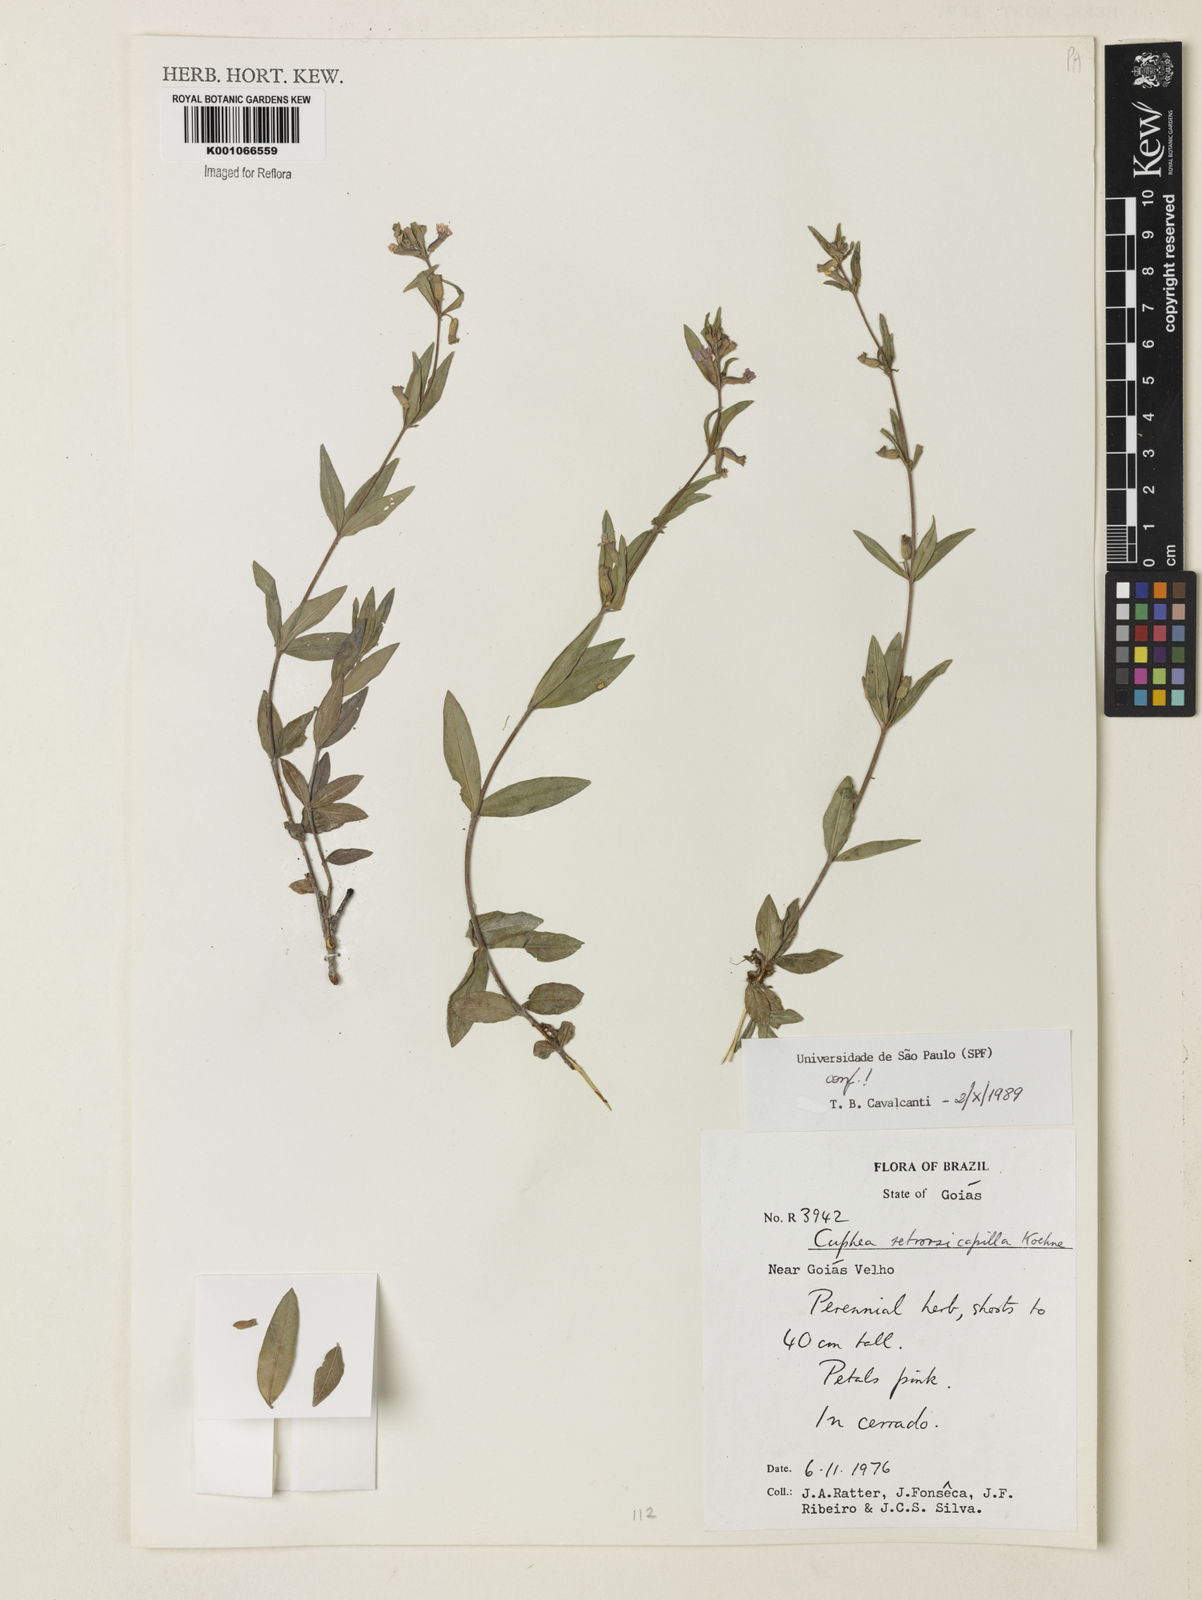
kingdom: Plantae
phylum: Tracheophyta
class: Magnoliopsida
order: Myrtales
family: Lythraceae
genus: Cuphea
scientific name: Cuphea retrorsicapilla
